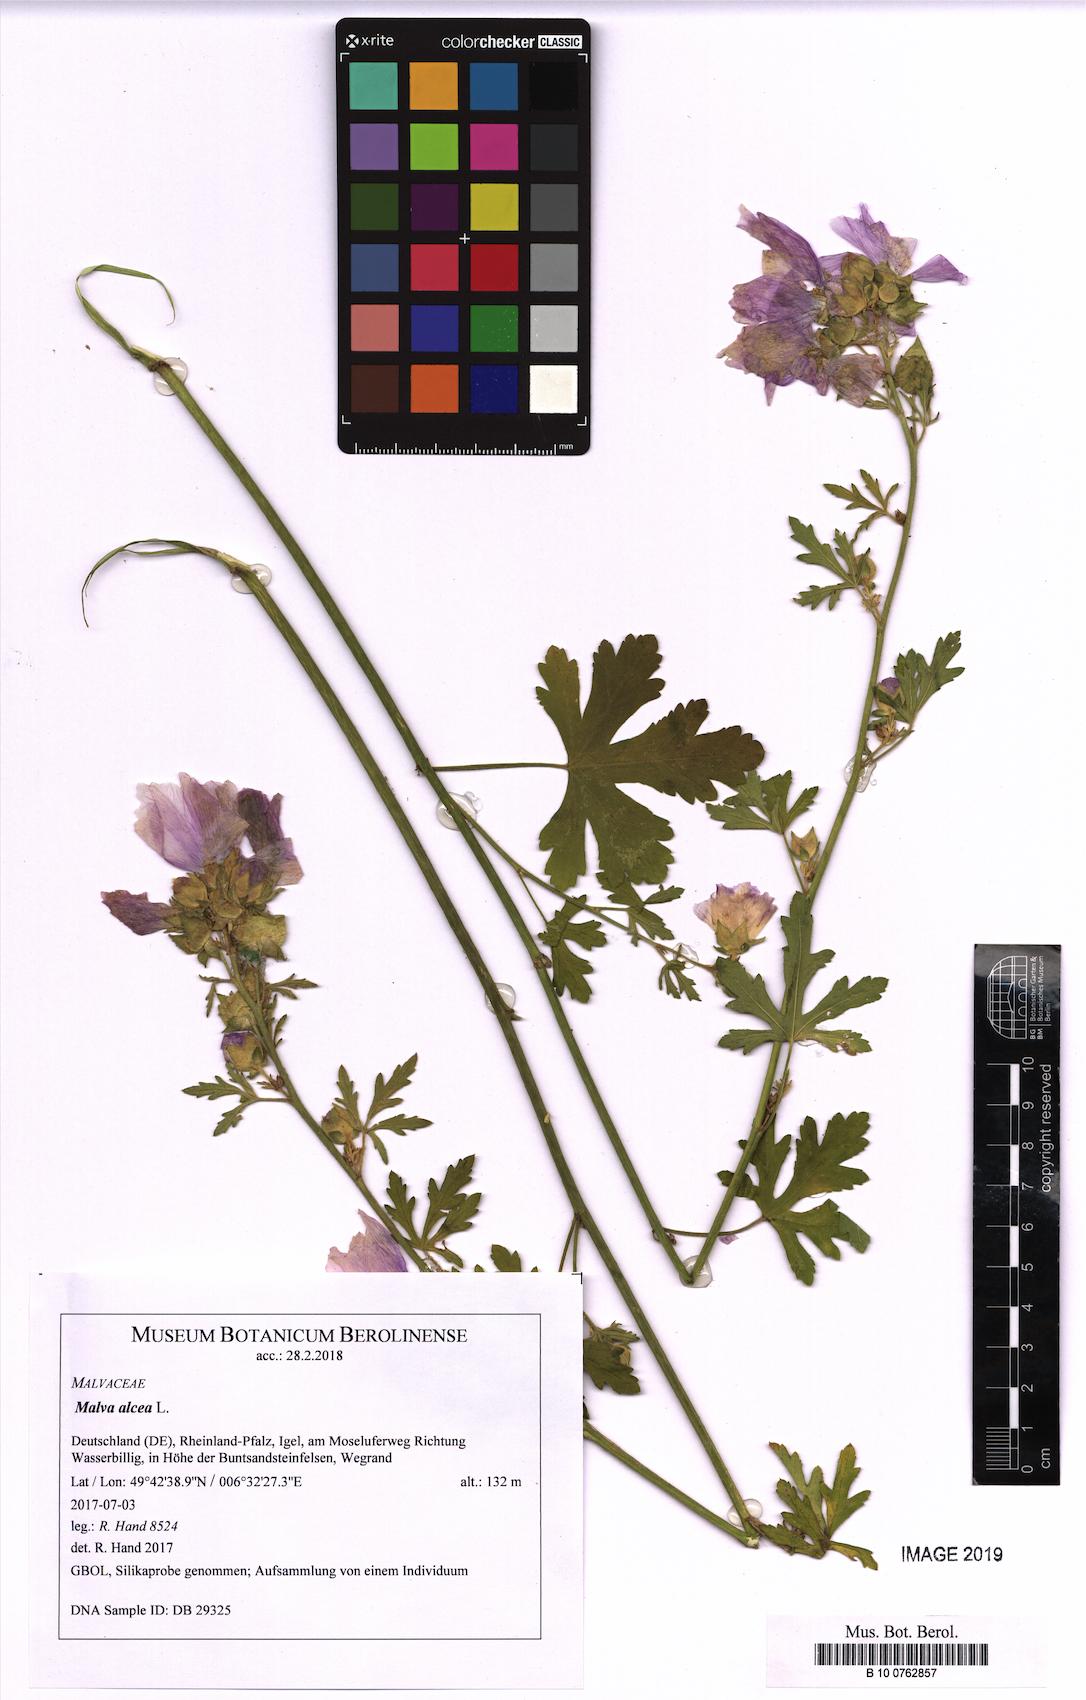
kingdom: Plantae
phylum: Tracheophyta
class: Magnoliopsida
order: Malvales
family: Malvaceae
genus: Malva
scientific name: Malva alcea
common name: Greater musk-mallow
